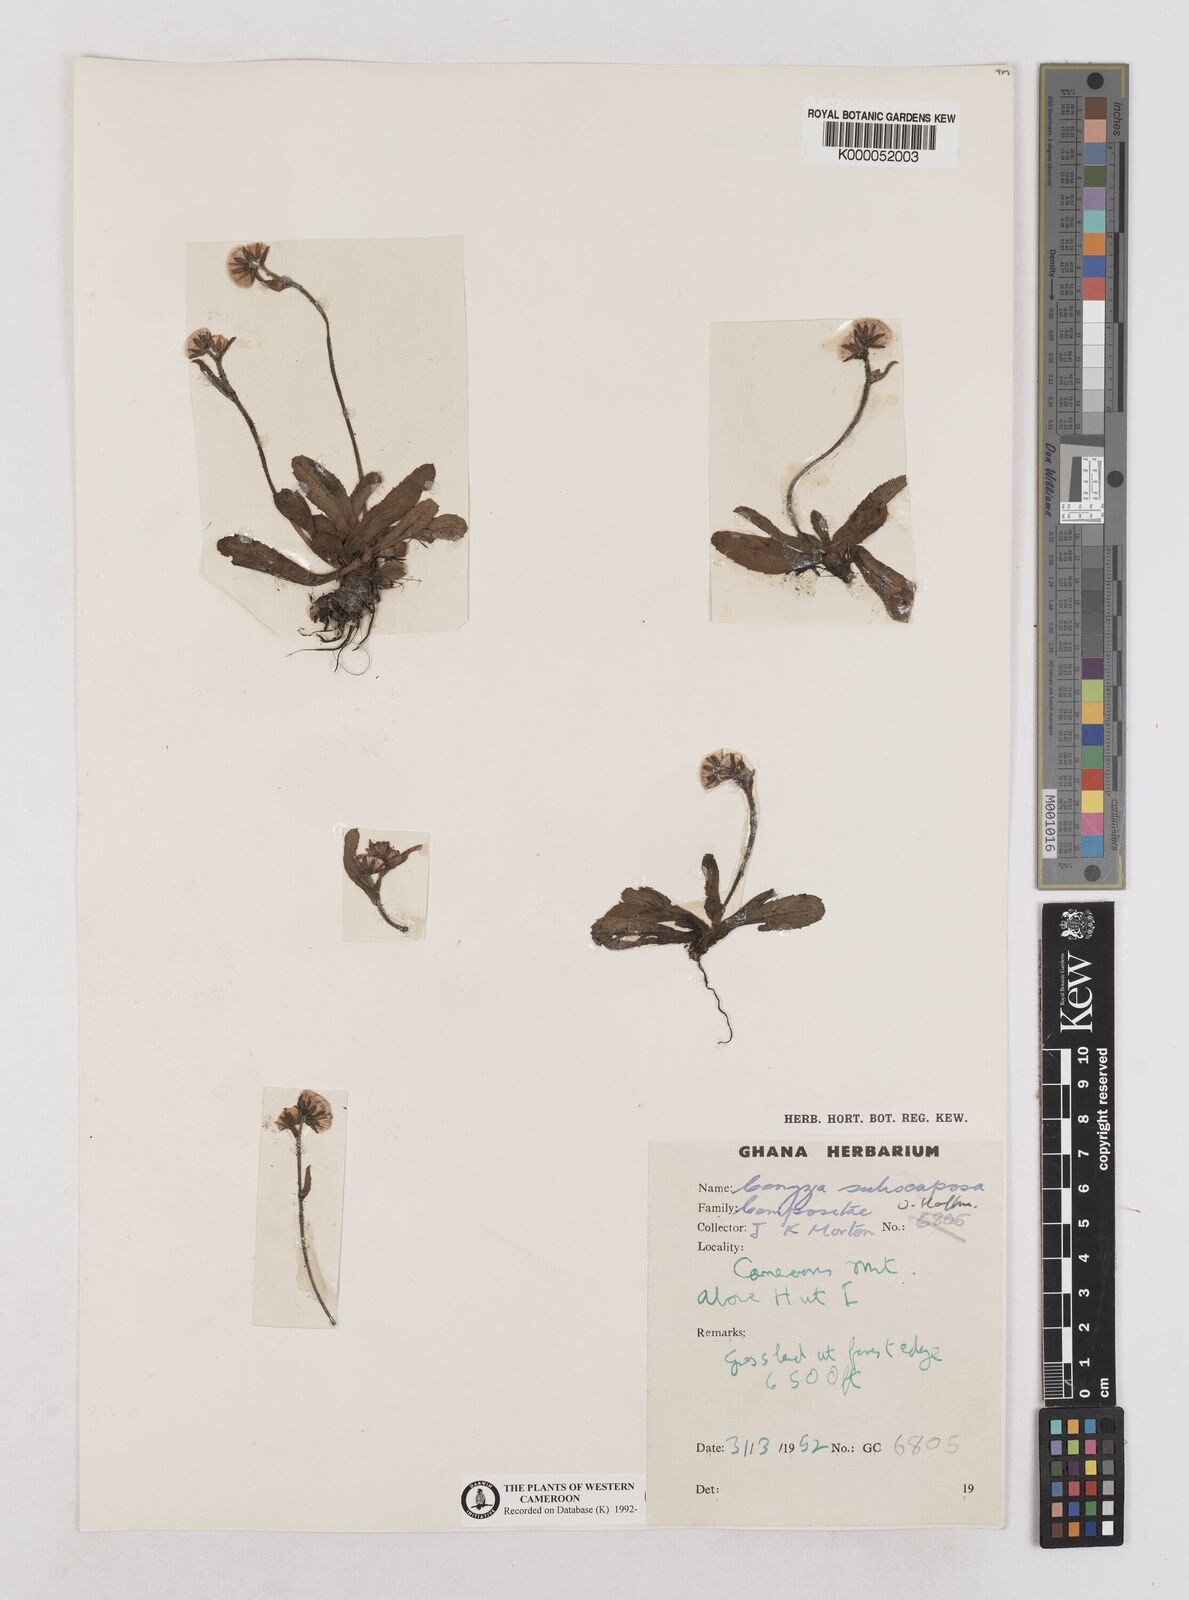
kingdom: Plantae
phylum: Tracheophyta
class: Magnoliopsida
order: Asterales
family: Asteraceae
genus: Eschenbachia
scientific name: Eschenbachia subscaposa
